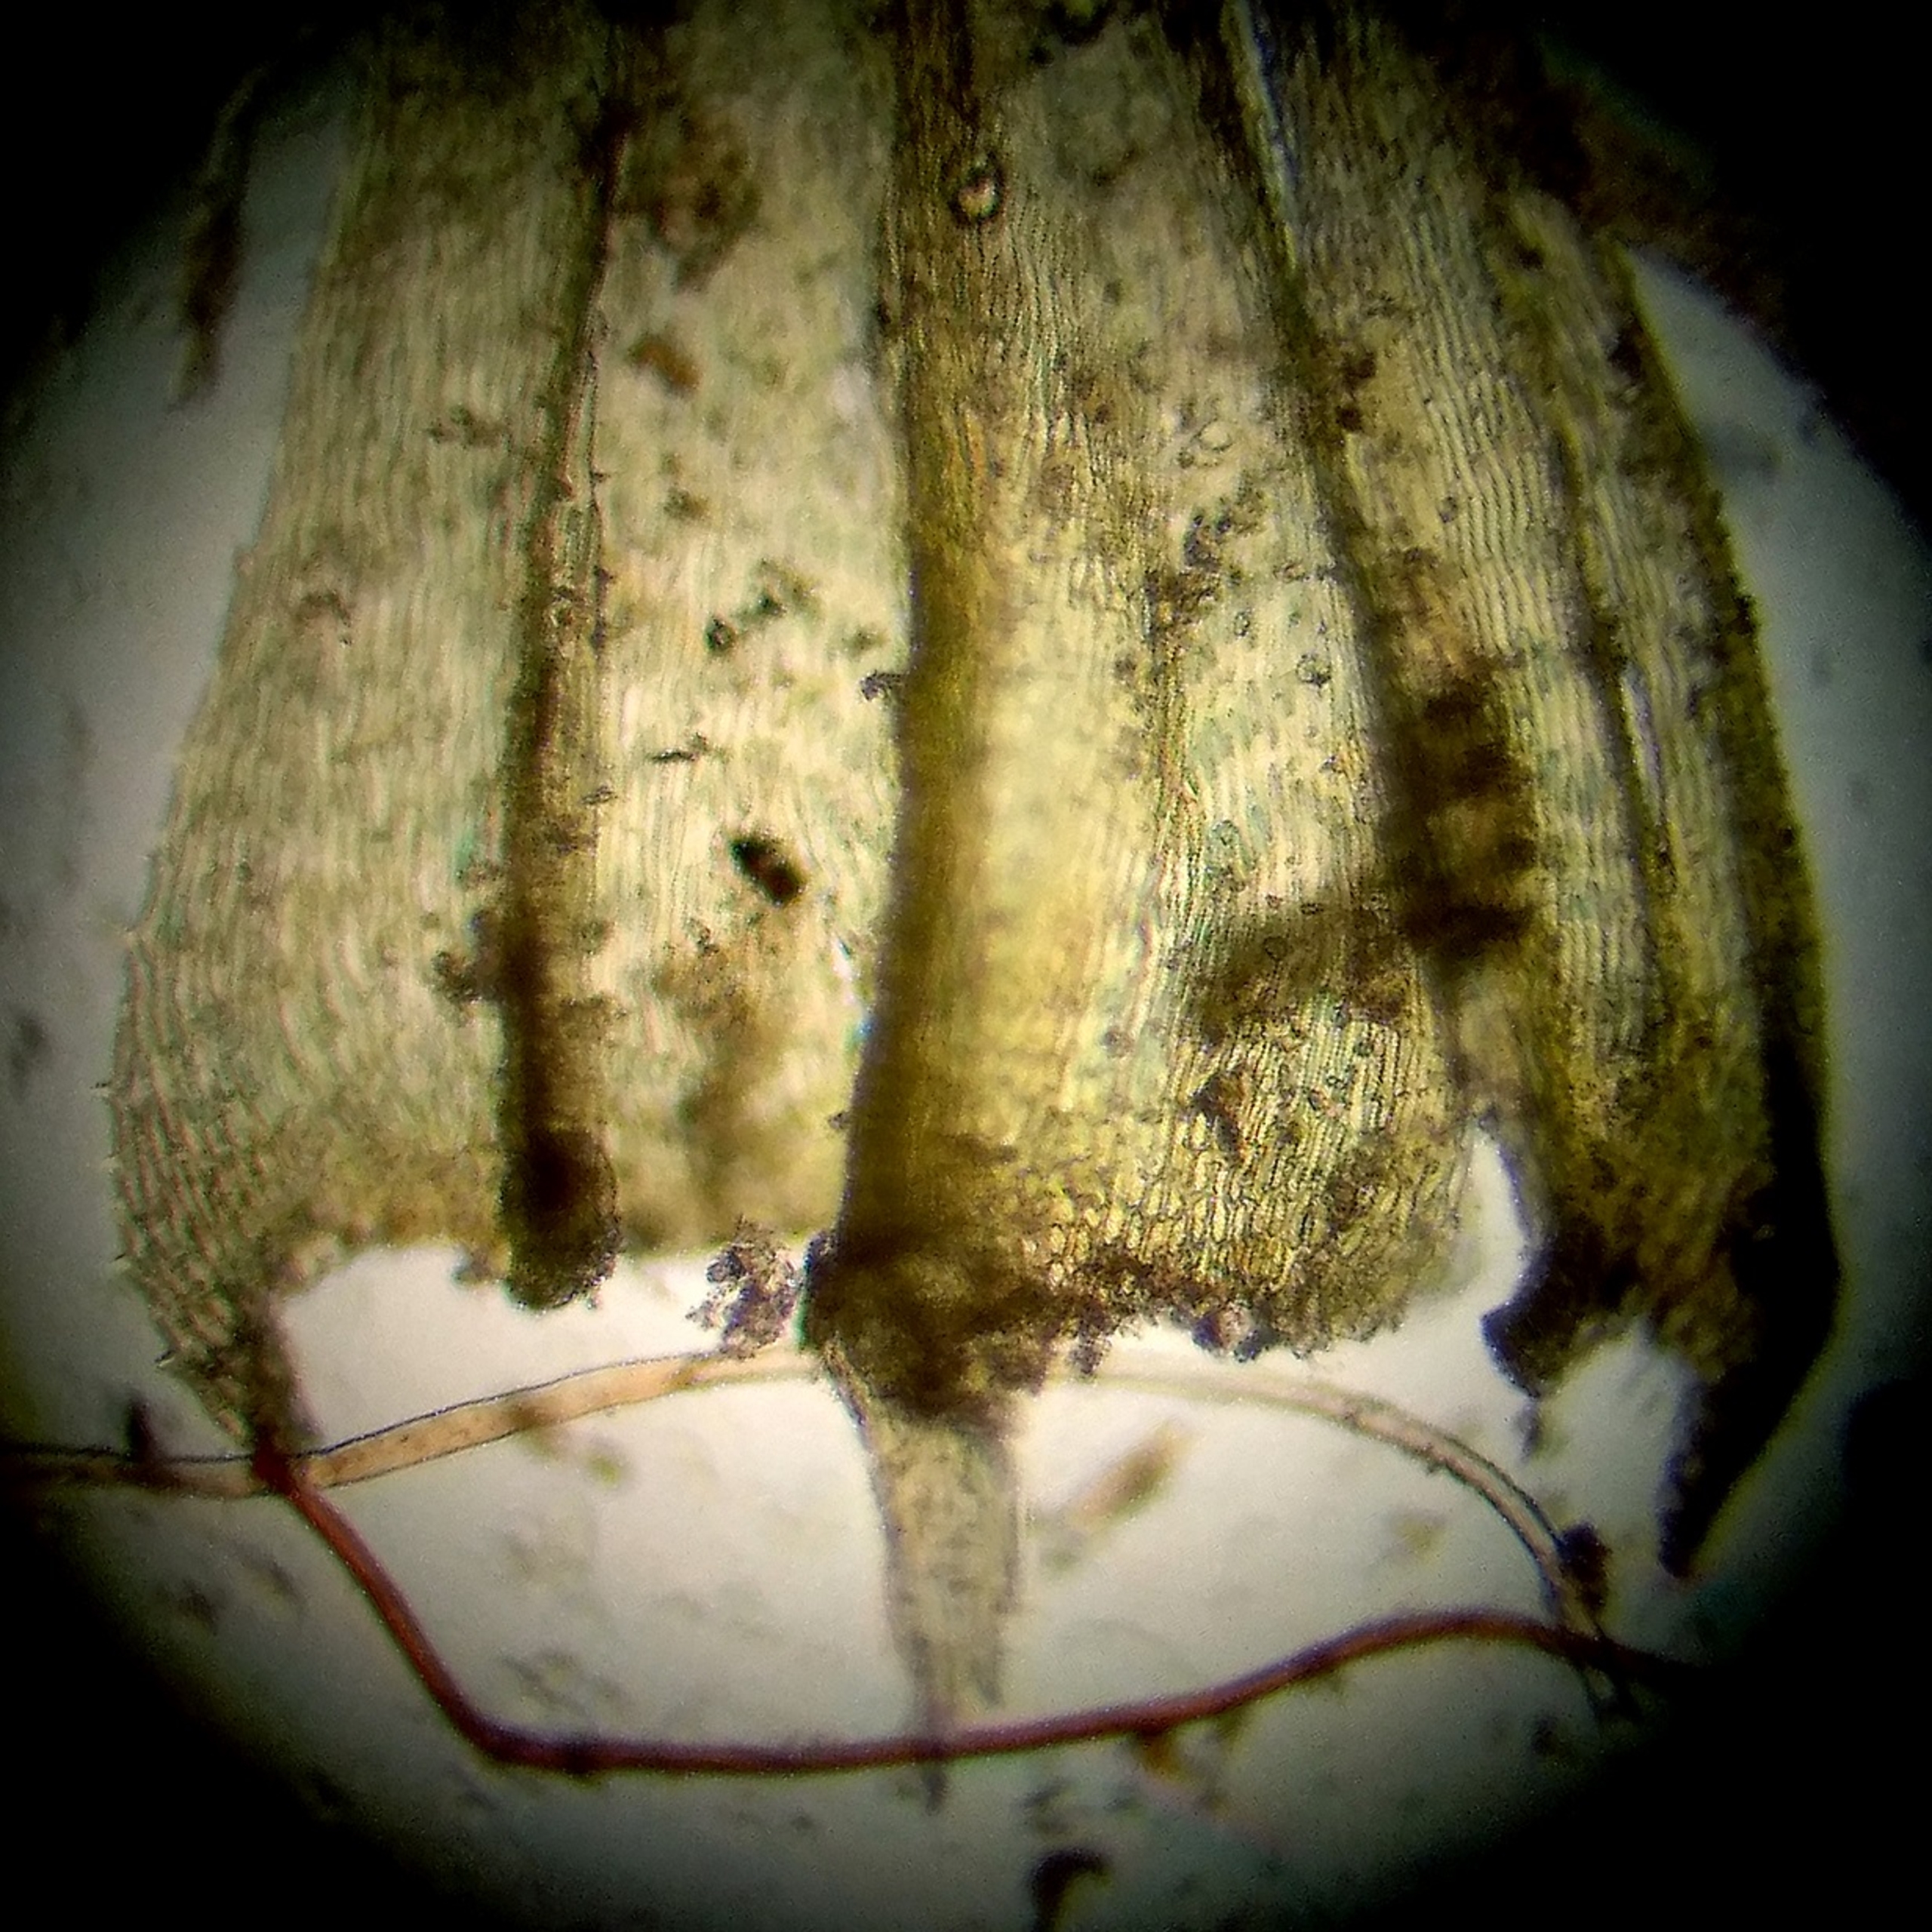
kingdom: Plantae
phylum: Bryophyta
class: Bryopsida
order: Hypnales
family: Brachytheciaceae
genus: Homalothecium
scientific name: Homalothecium sericeum
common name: Krybende silkemos
